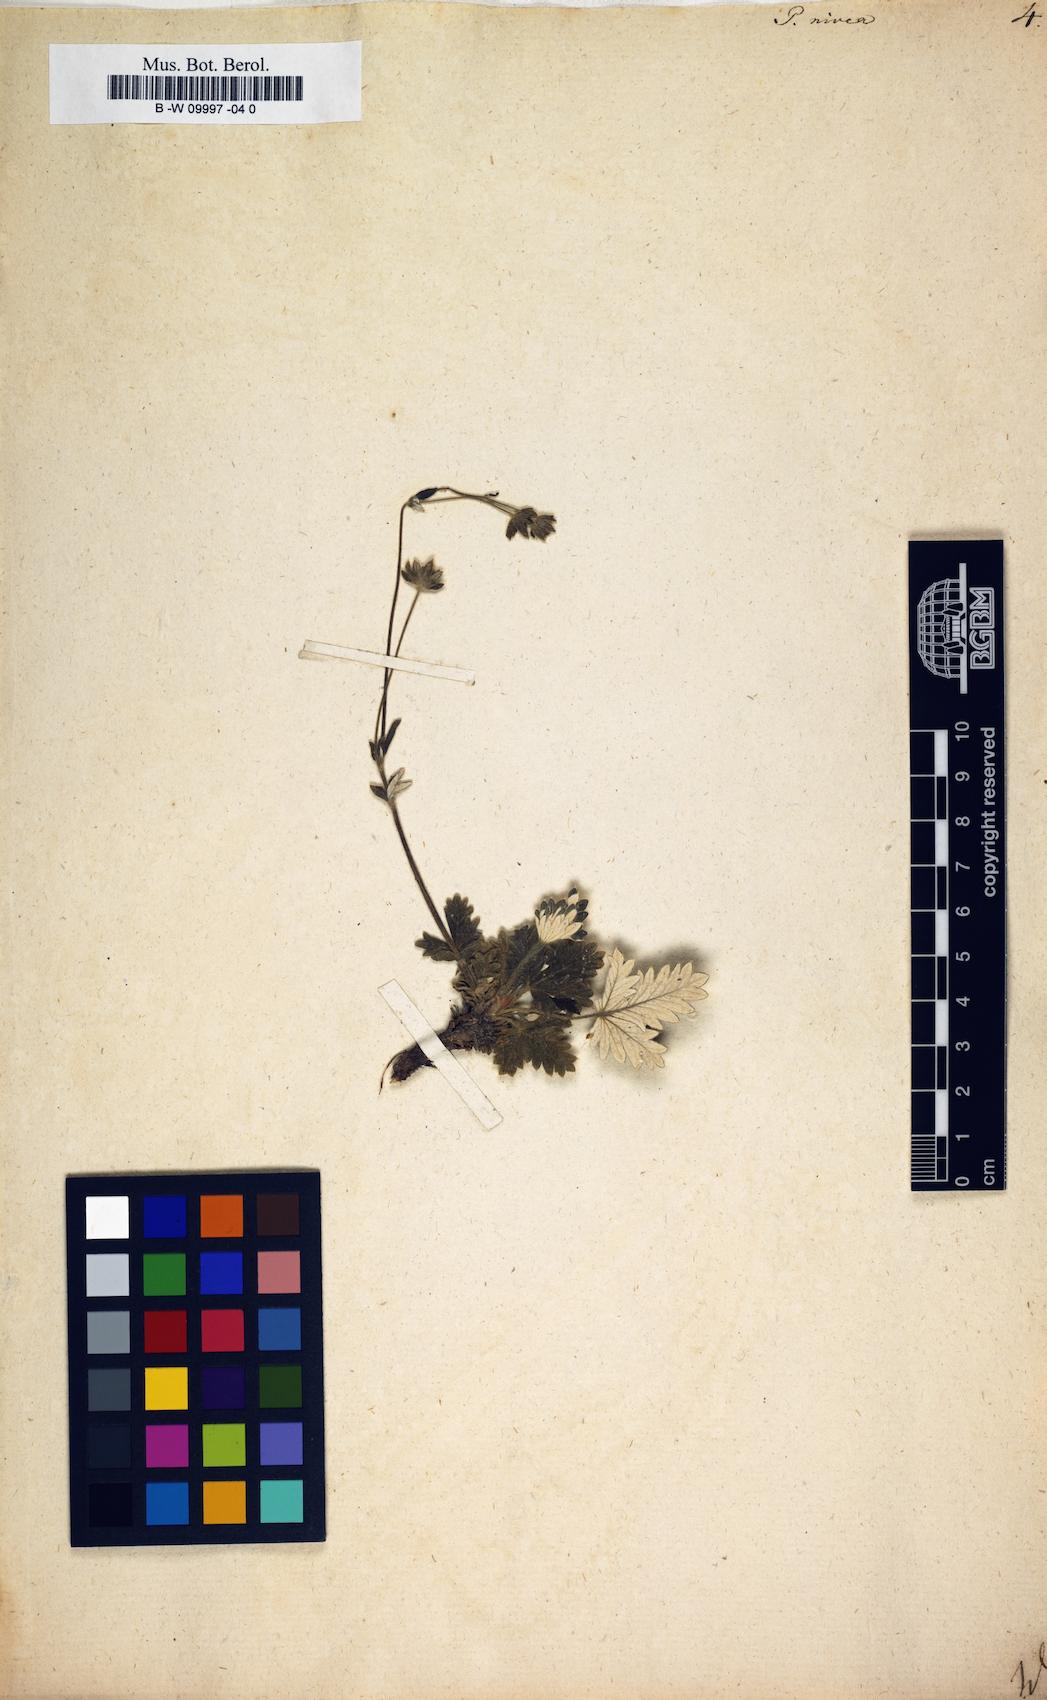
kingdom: Plantae
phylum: Tracheophyta
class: Magnoliopsida
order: Rosales
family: Rosaceae
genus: Potentilla
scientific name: Potentilla nivea
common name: Snow cinquefoil
